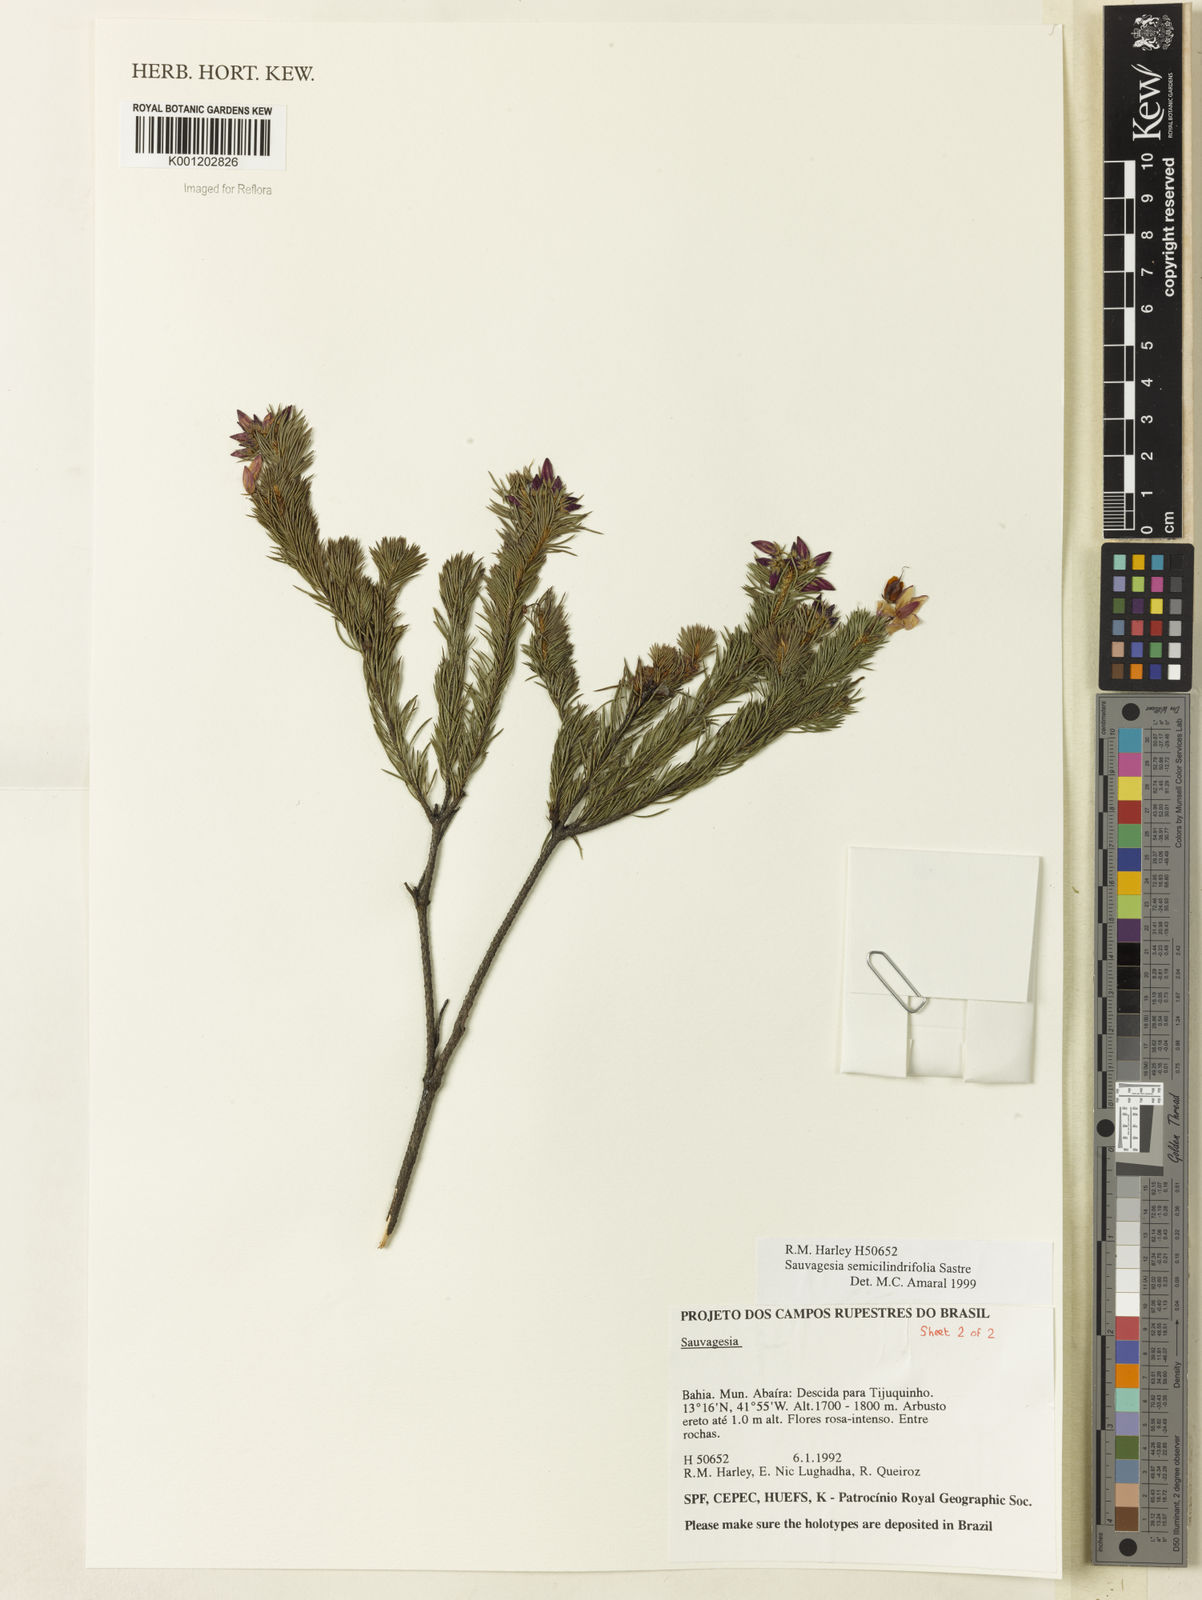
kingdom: Plantae
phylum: Tracheophyta
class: Magnoliopsida
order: Malpighiales
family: Ochnaceae
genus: Sauvagesia
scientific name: Sauvagesia semicylindrifolia
